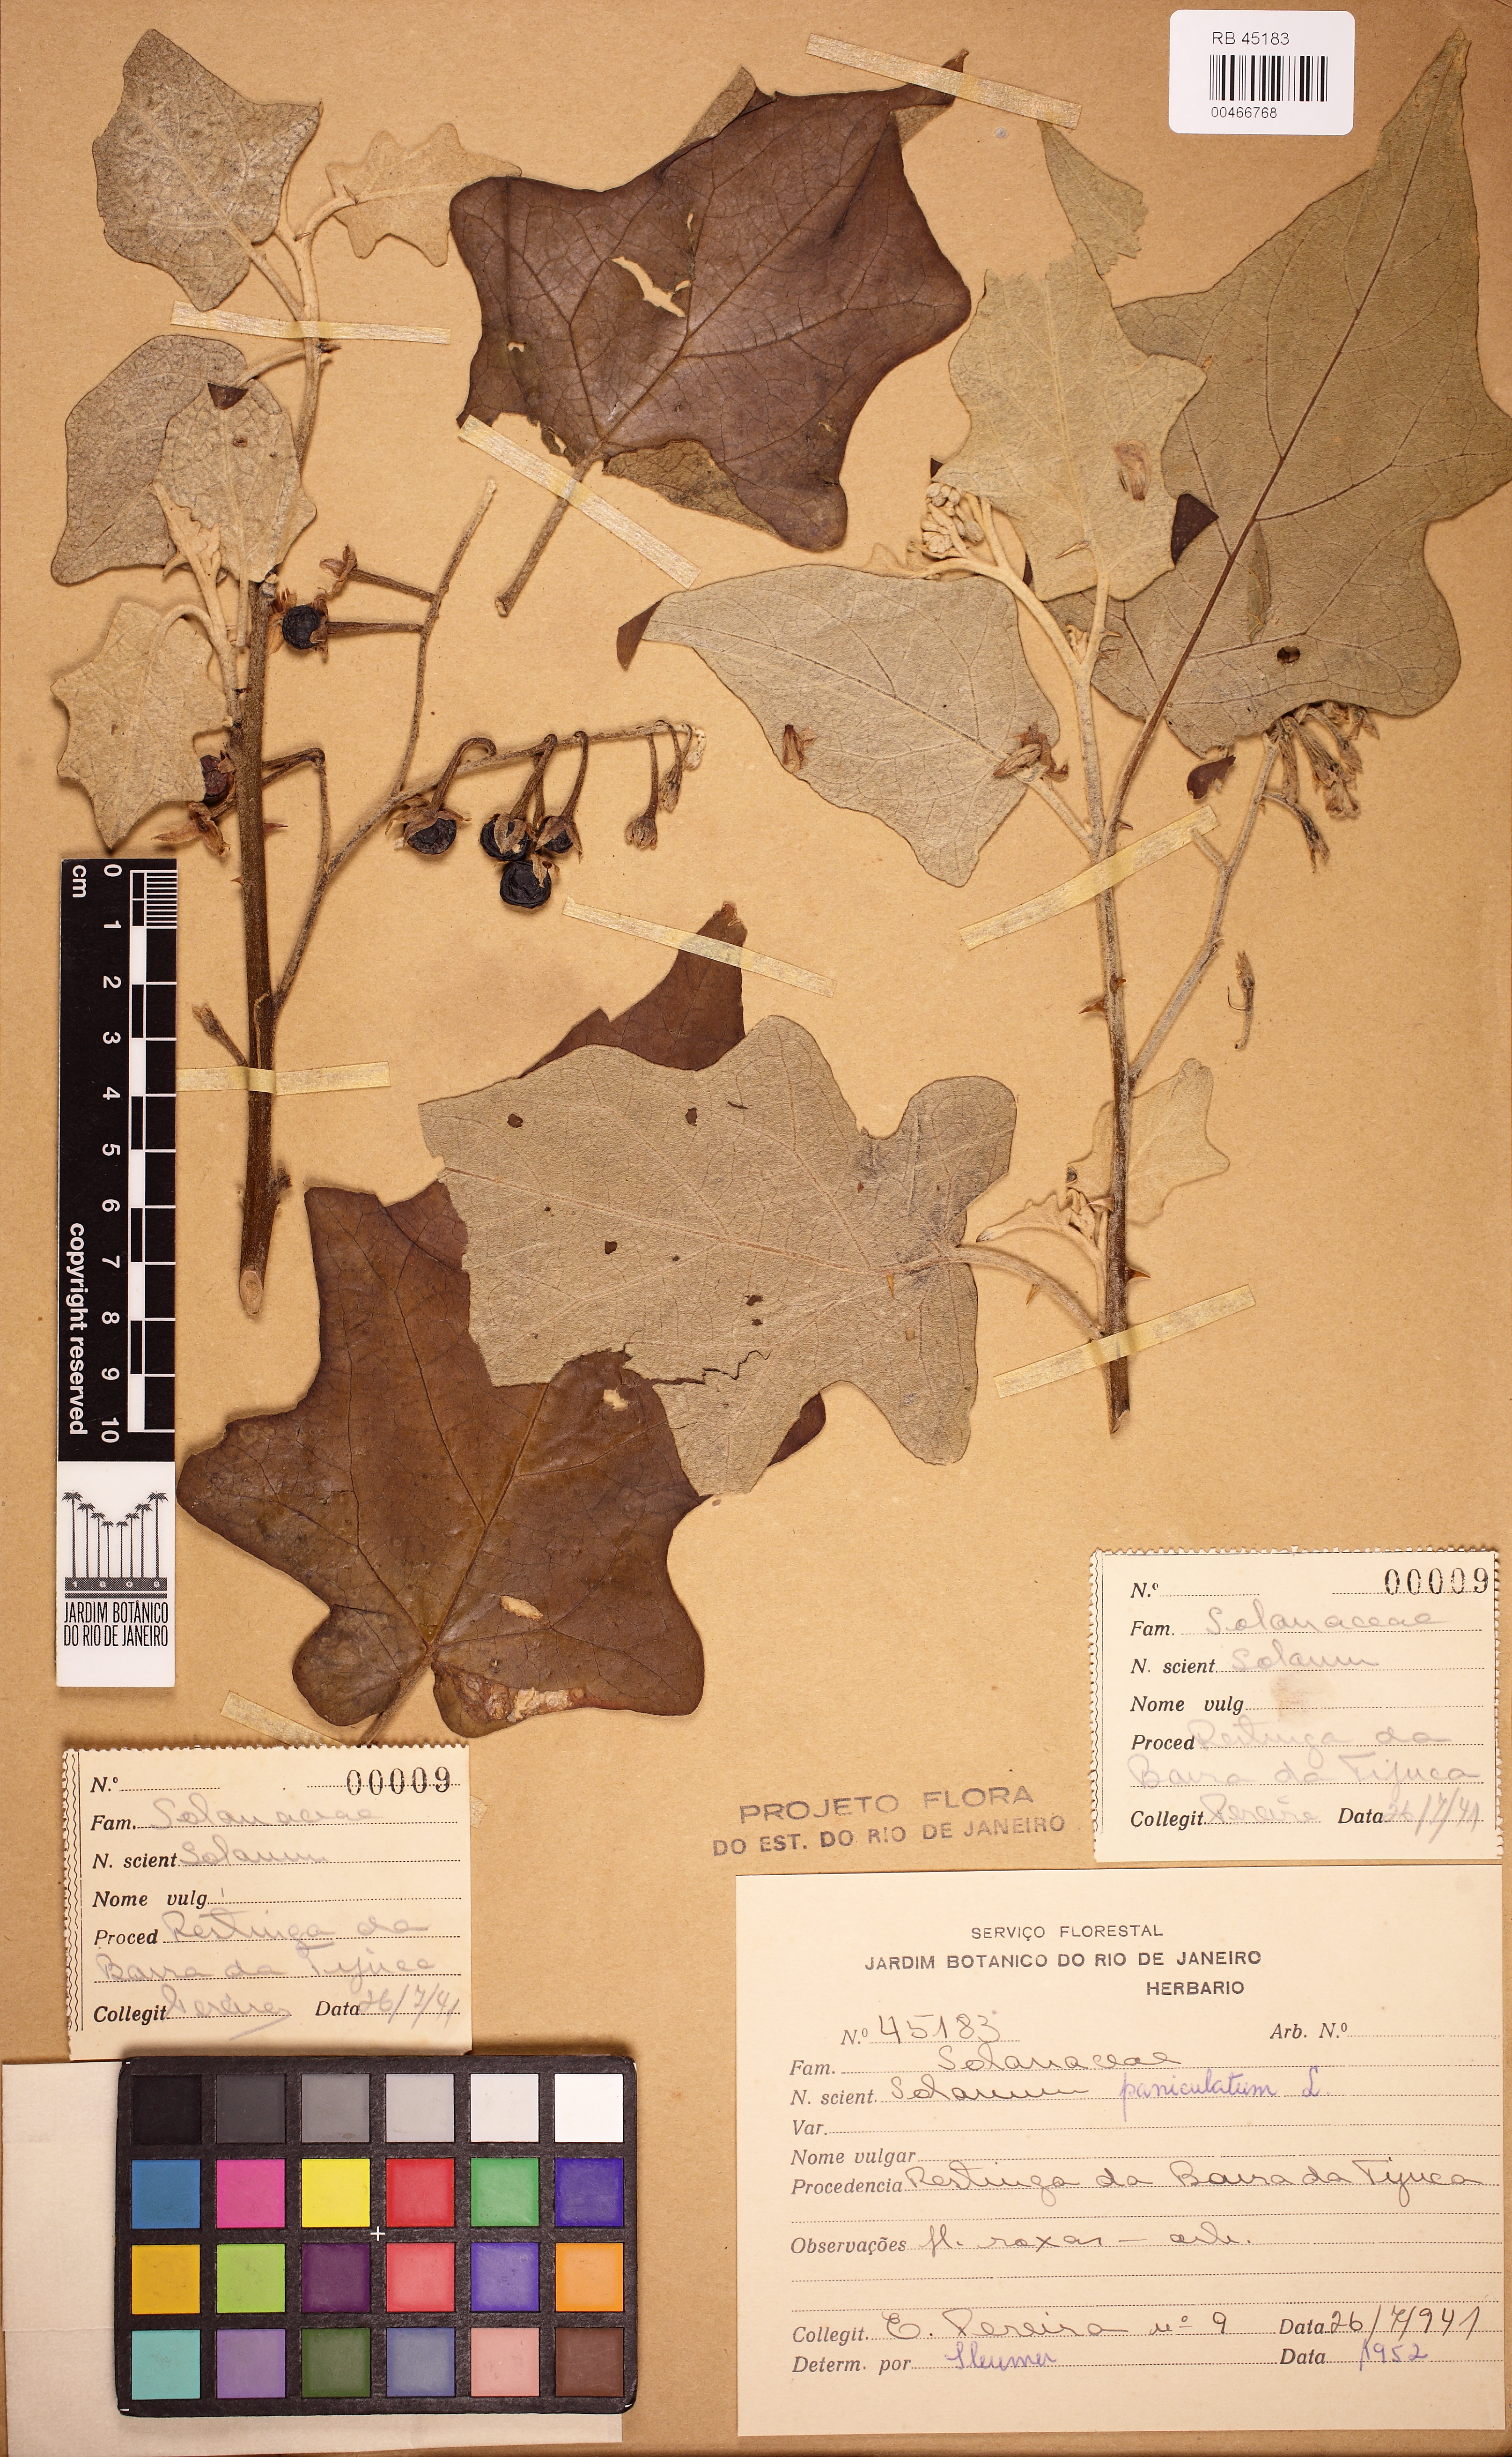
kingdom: Plantae
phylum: Tracheophyta
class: Magnoliopsida
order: Solanales
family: Solanaceae
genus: Solanum
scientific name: Solanum paniculatum
